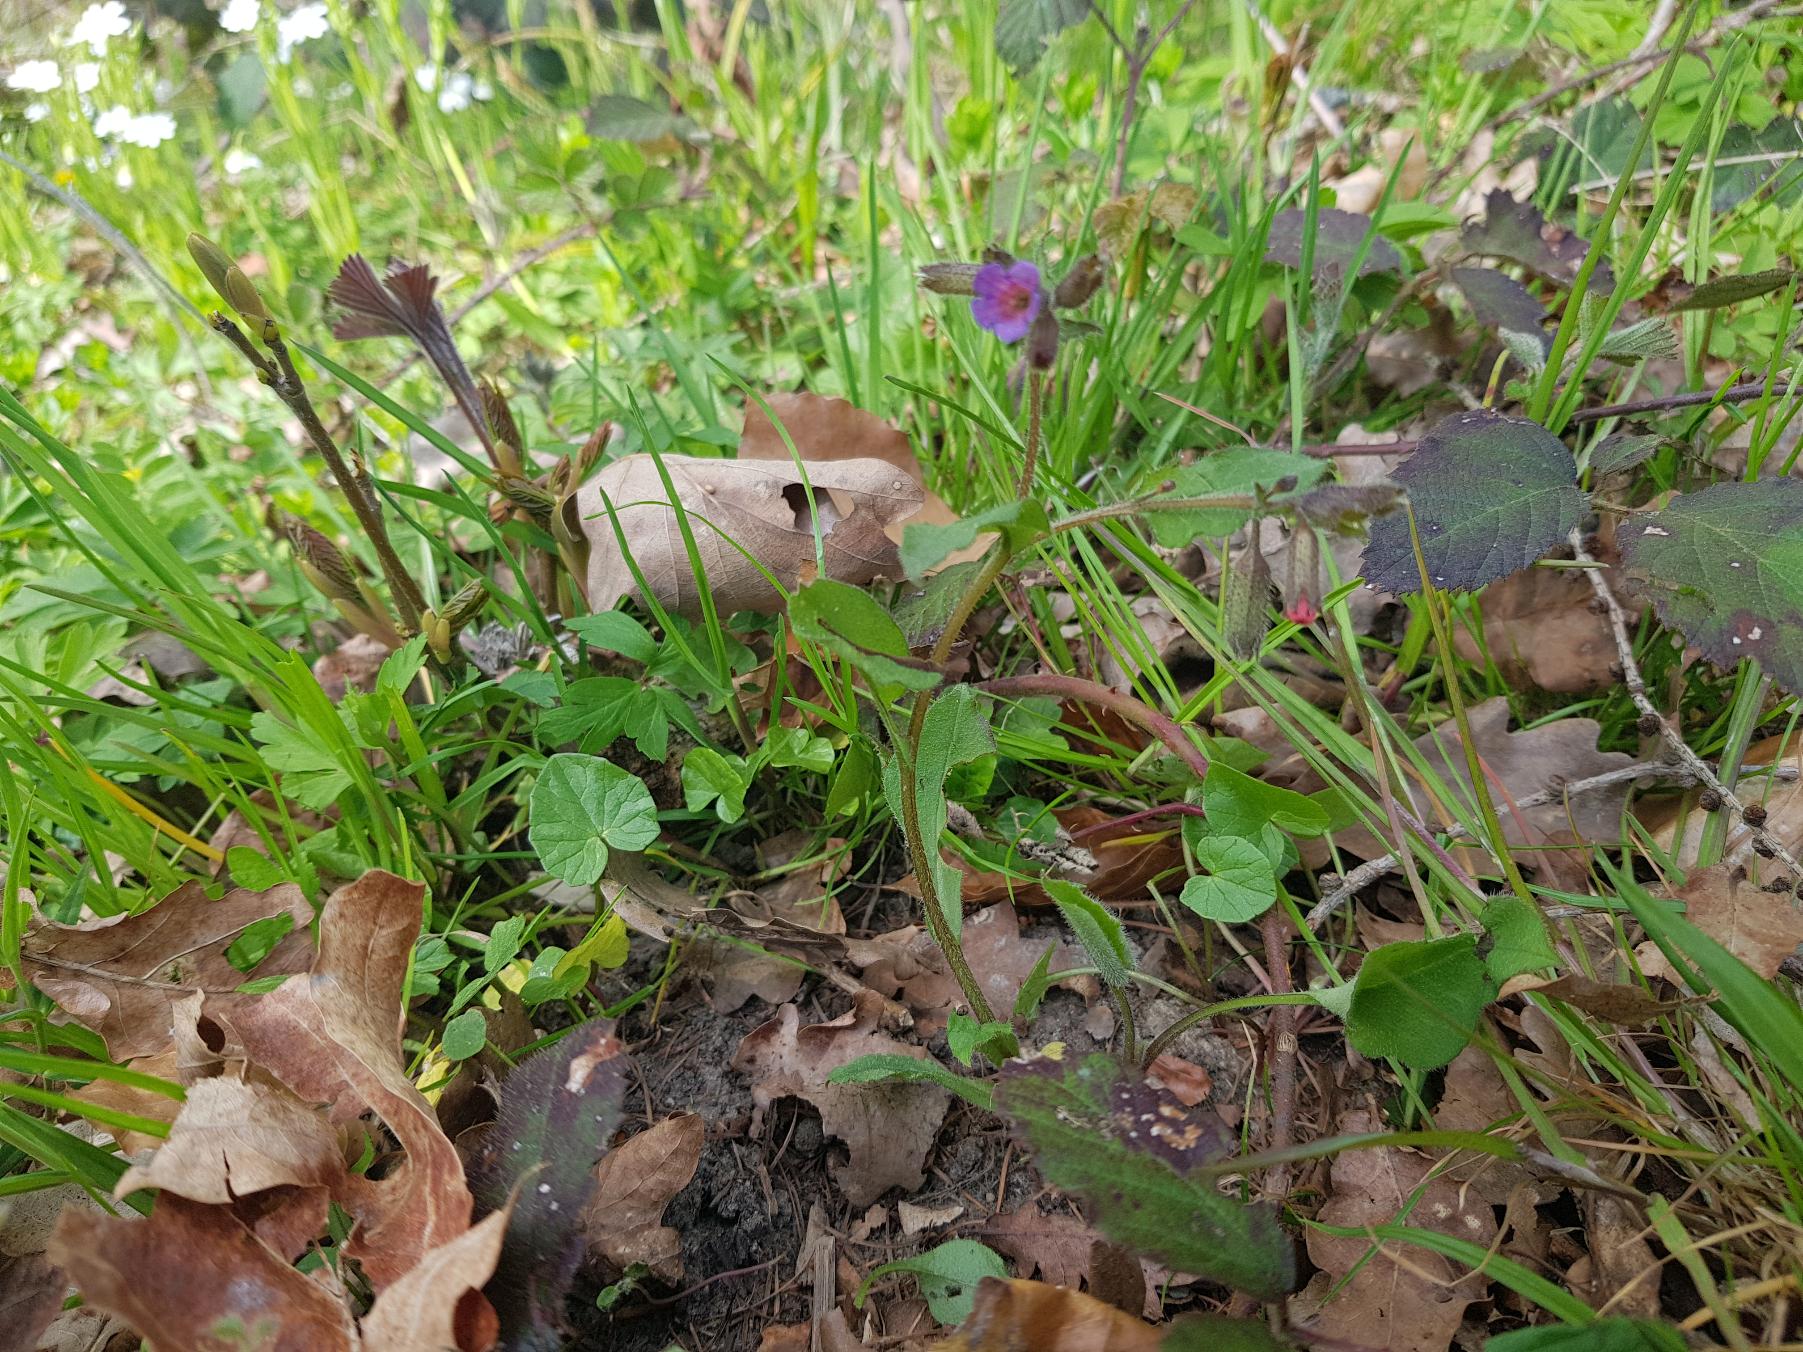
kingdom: Plantae
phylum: Tracheophyta
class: Magnoliopsida
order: Boraginales
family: Boraginaceae
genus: Pulmonaria
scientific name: Pulmonaria obscura
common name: Almindelig lungeurt
